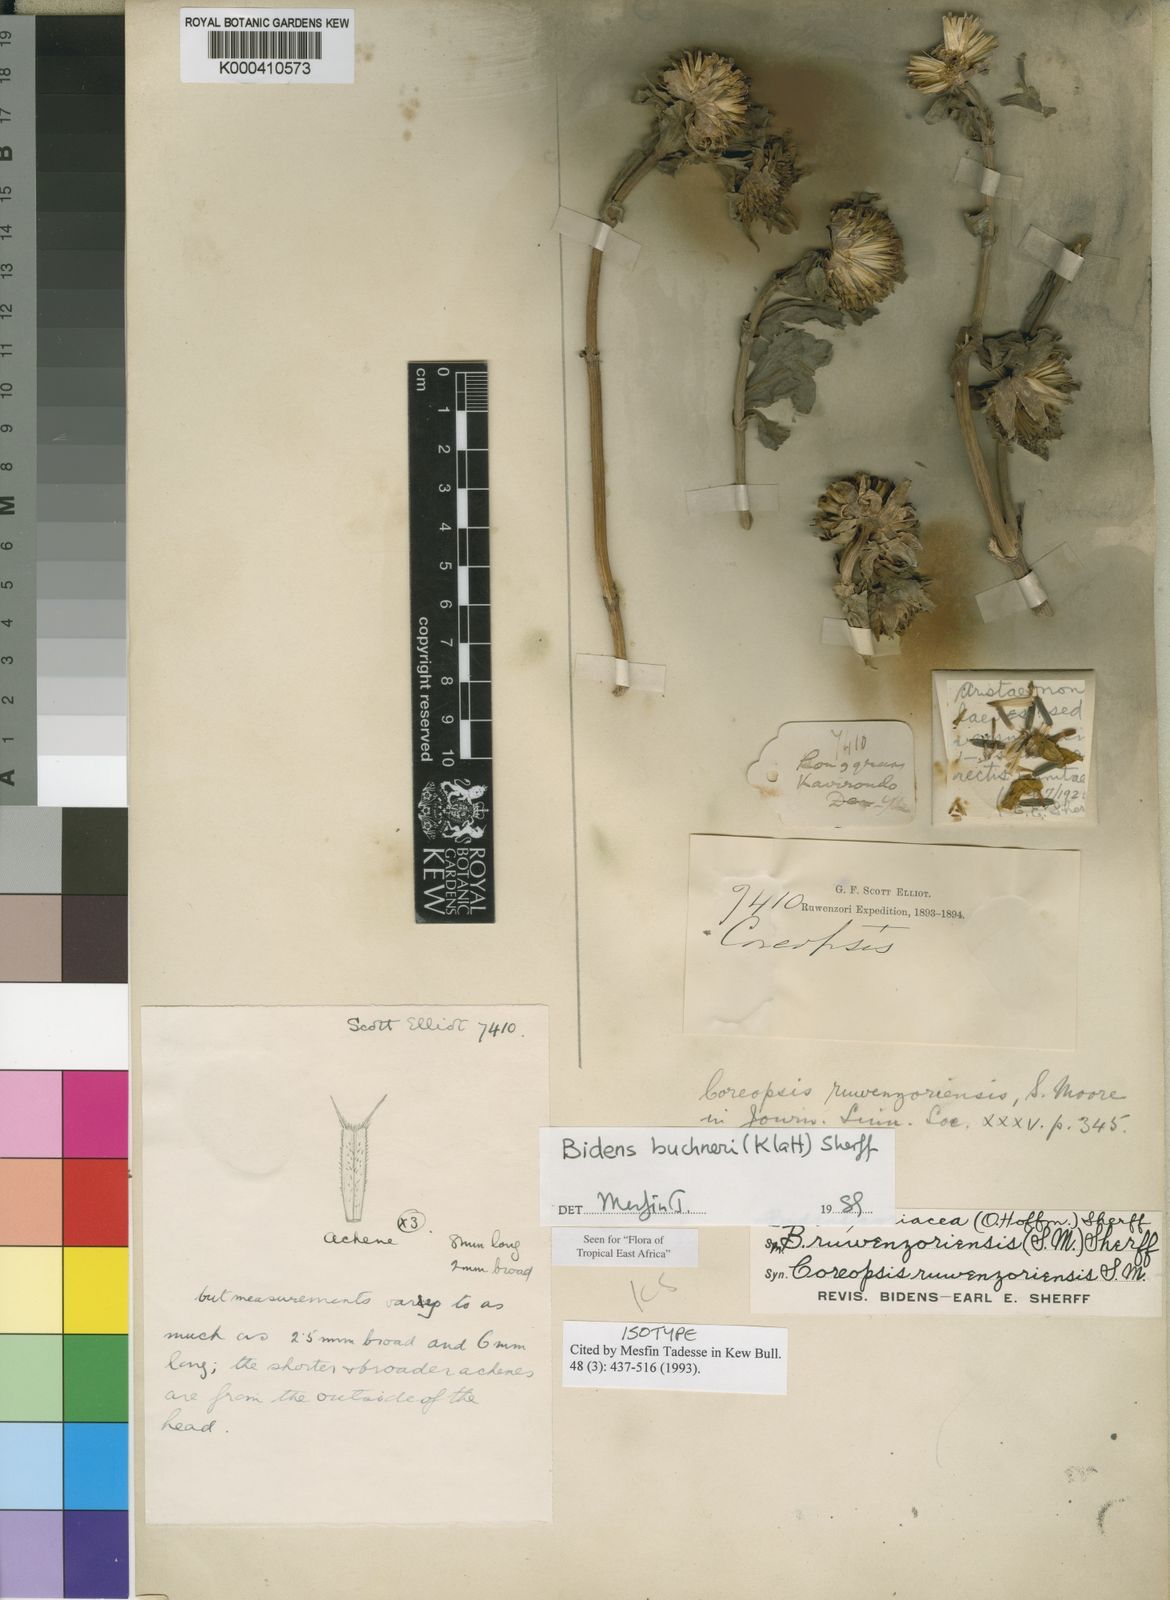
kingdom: Plantae
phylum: Tracheophyta
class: Magnoliopsida
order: Asterales
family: Asteraceae
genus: Bidens
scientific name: Bidens buchneri
